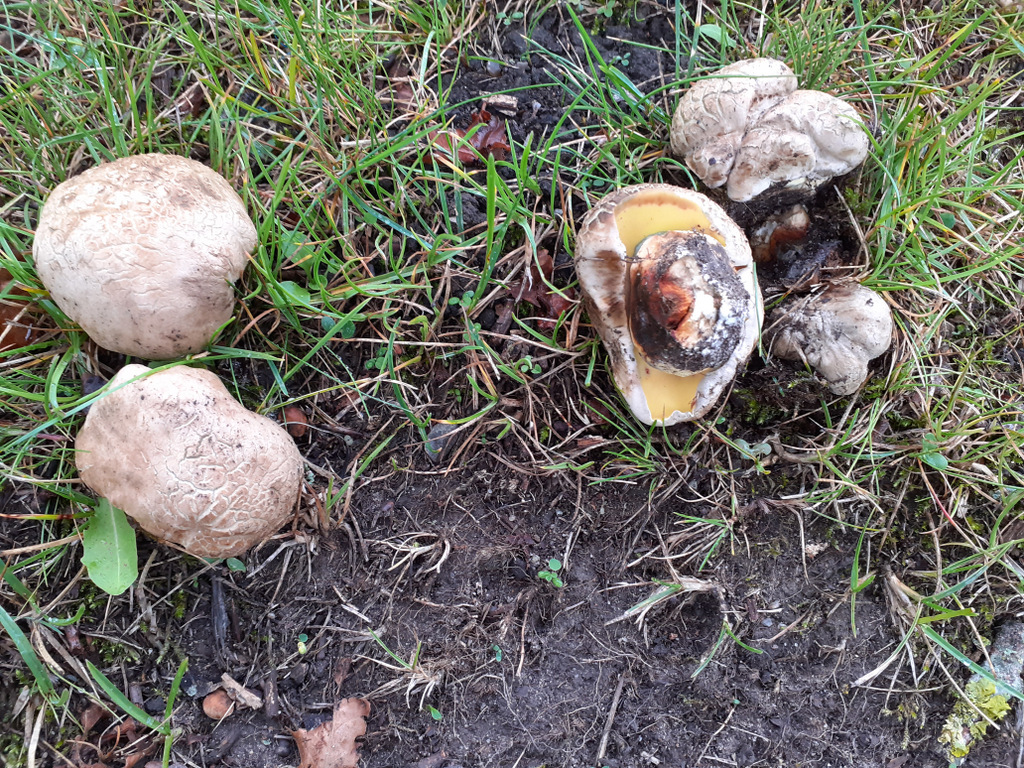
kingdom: Fungi
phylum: Basidiomycota
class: Agaricomycetes
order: Boletales
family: Boletaceae
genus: Caloboletus
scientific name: Caloboletus radicans
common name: rod-rørhat
